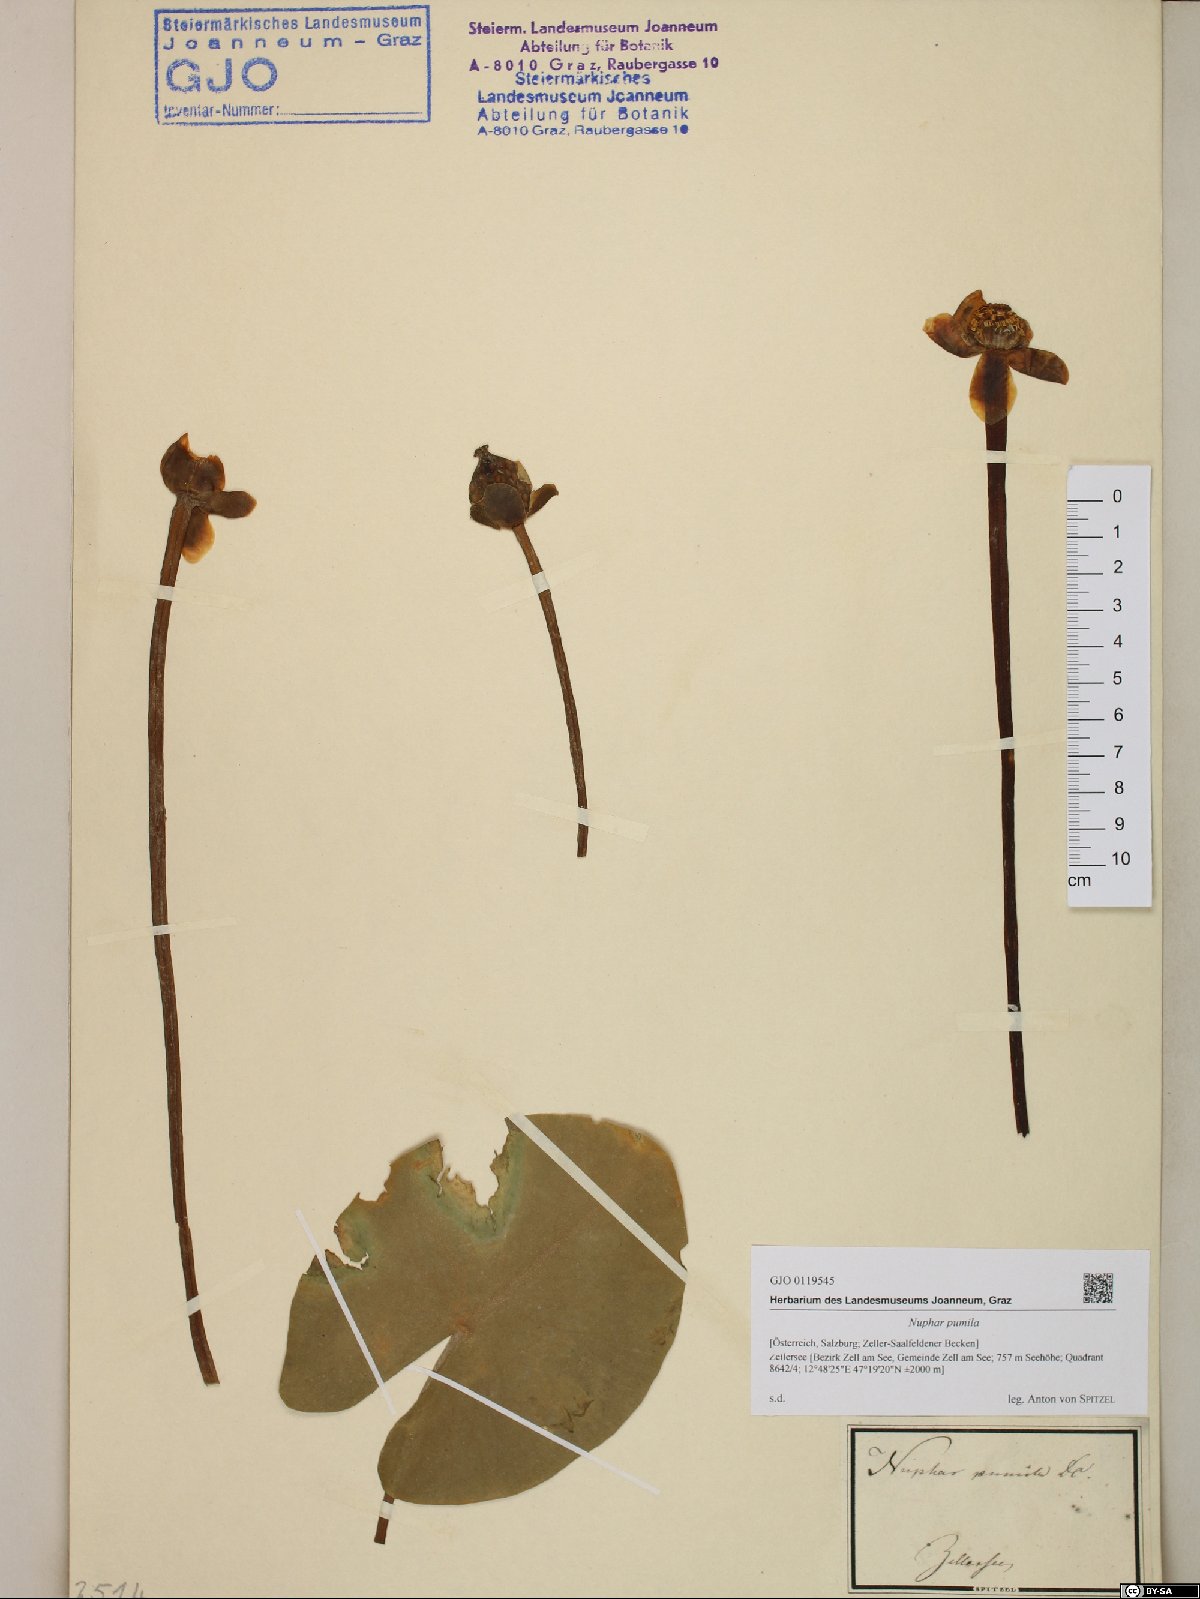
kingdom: Plantae
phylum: Tracheophyta
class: Magnoliopsida
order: Nymphaeales
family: Nymphaeaceae
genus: Nuphar
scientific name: Nuphar pumila
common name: Least water-lily
